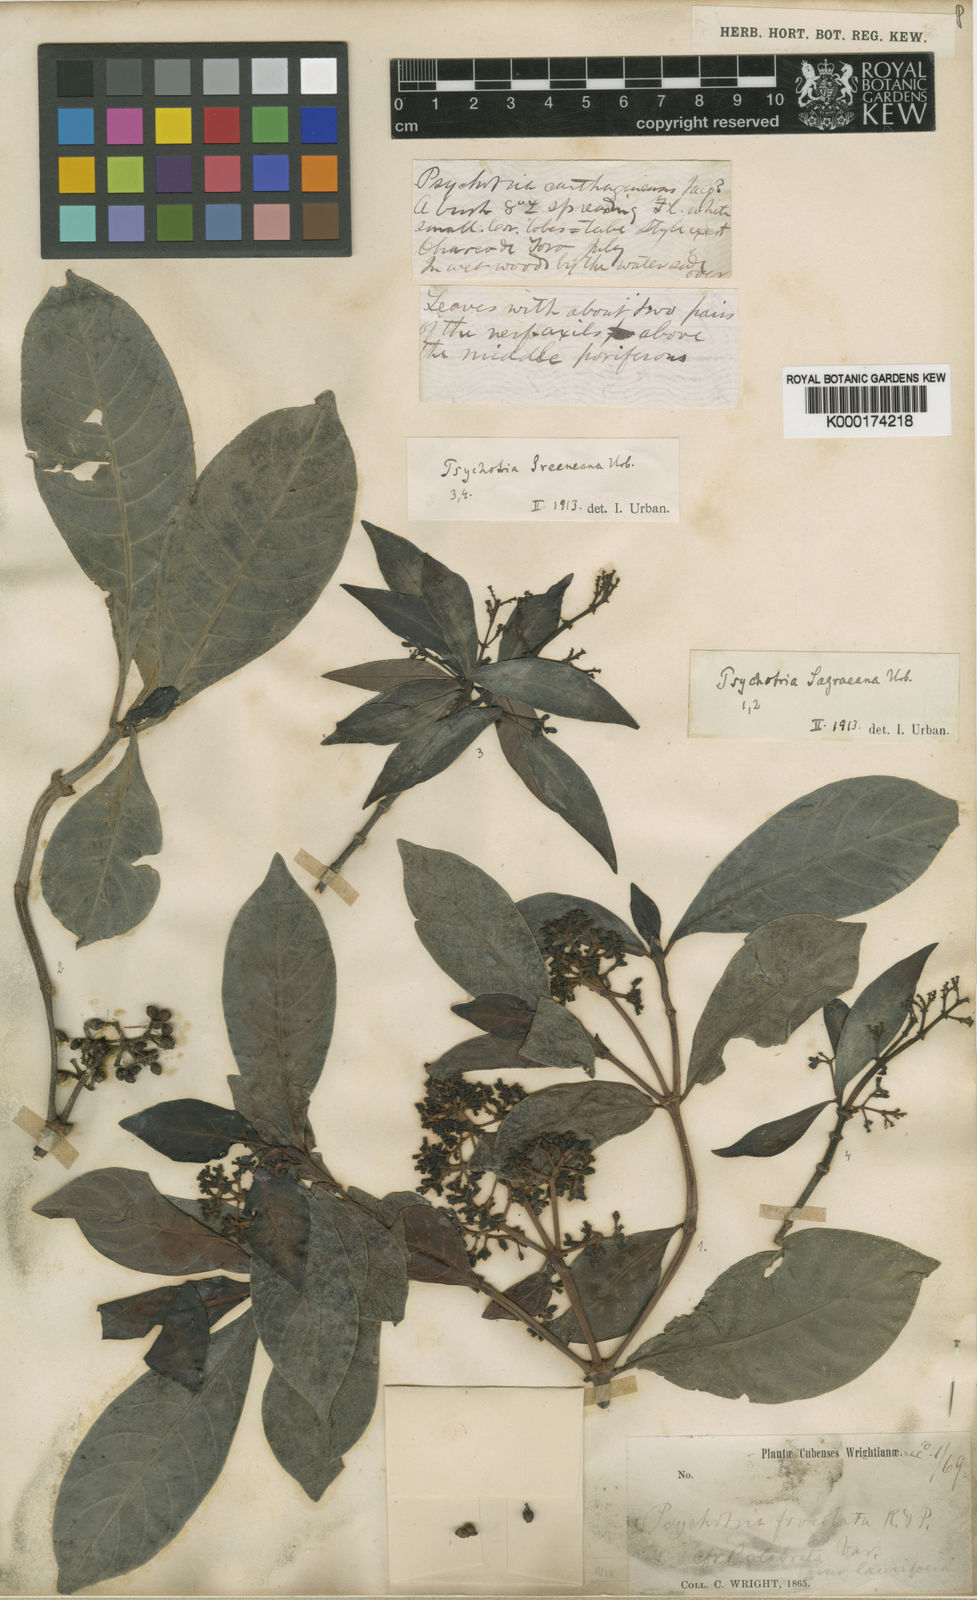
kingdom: Plantae
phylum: Tracheophyta
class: Magnoliopsida
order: Gentianales
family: Rubiaceae
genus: Psychotria
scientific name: Psychotria carthagenensis
